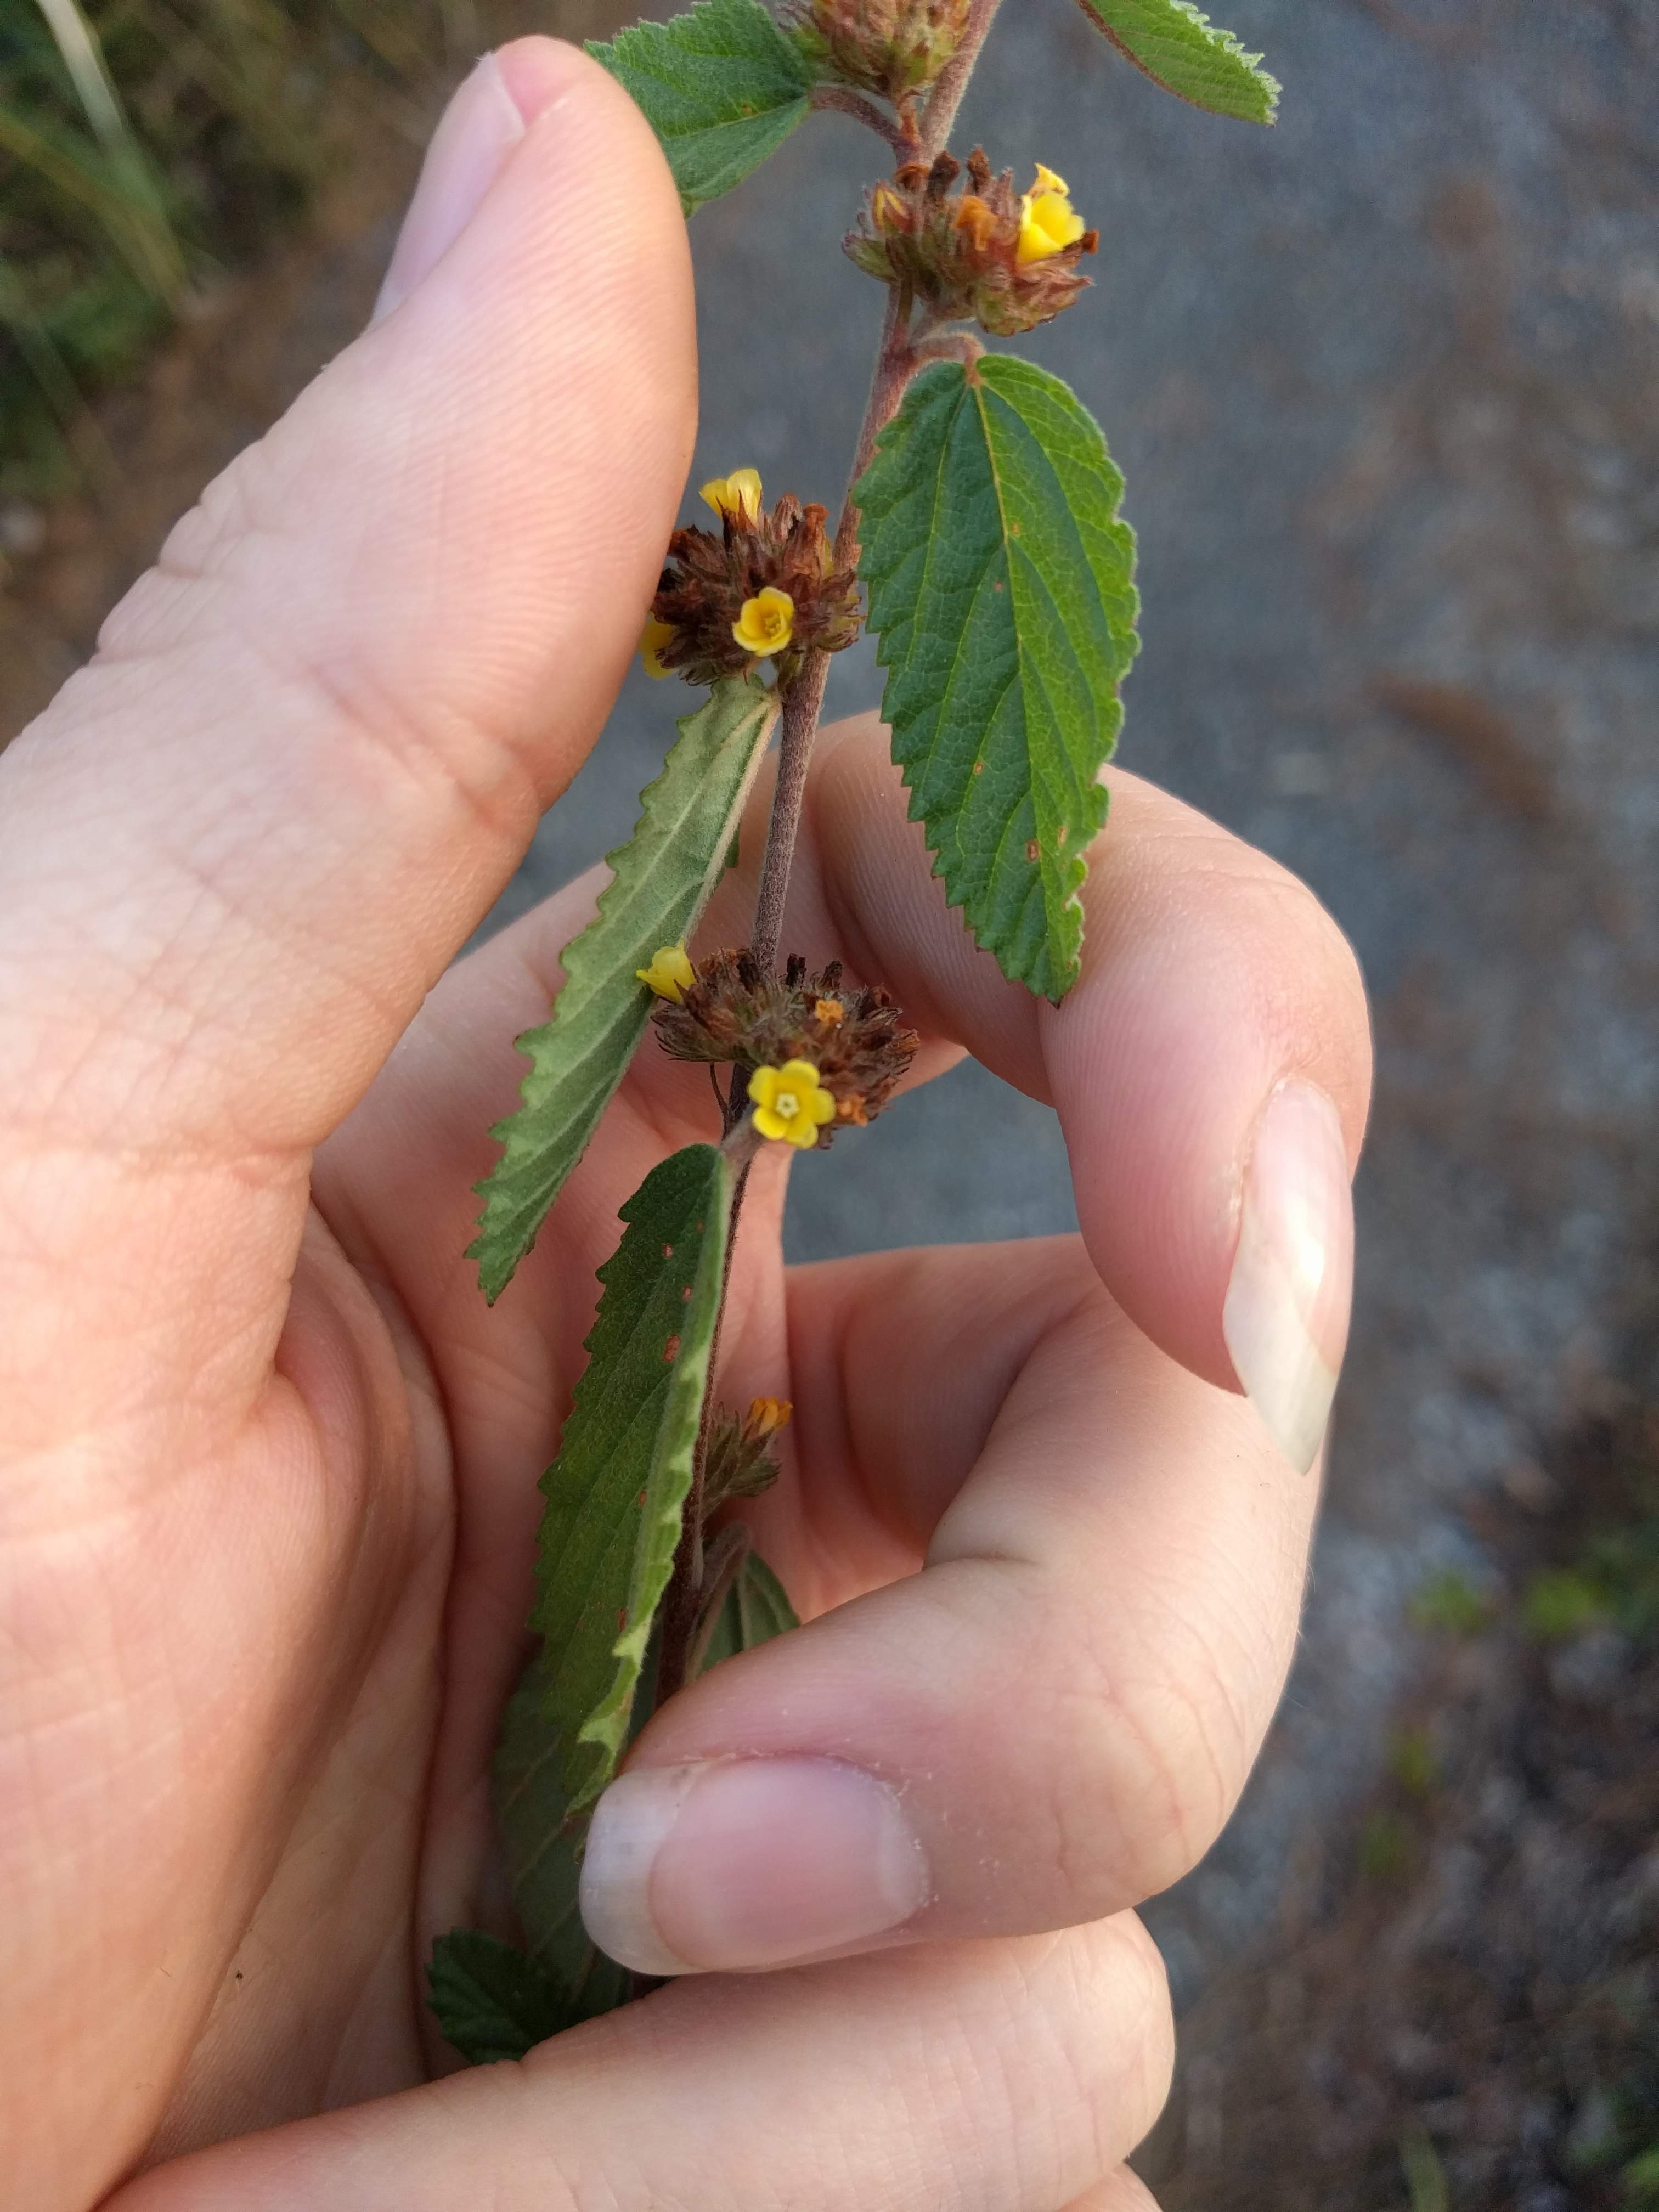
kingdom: Plantae
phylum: Tracheophyta
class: Magnoliopsida
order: Malvales
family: Malvaceae
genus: Waltheria
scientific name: Waltheria indica
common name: Leather-coat
